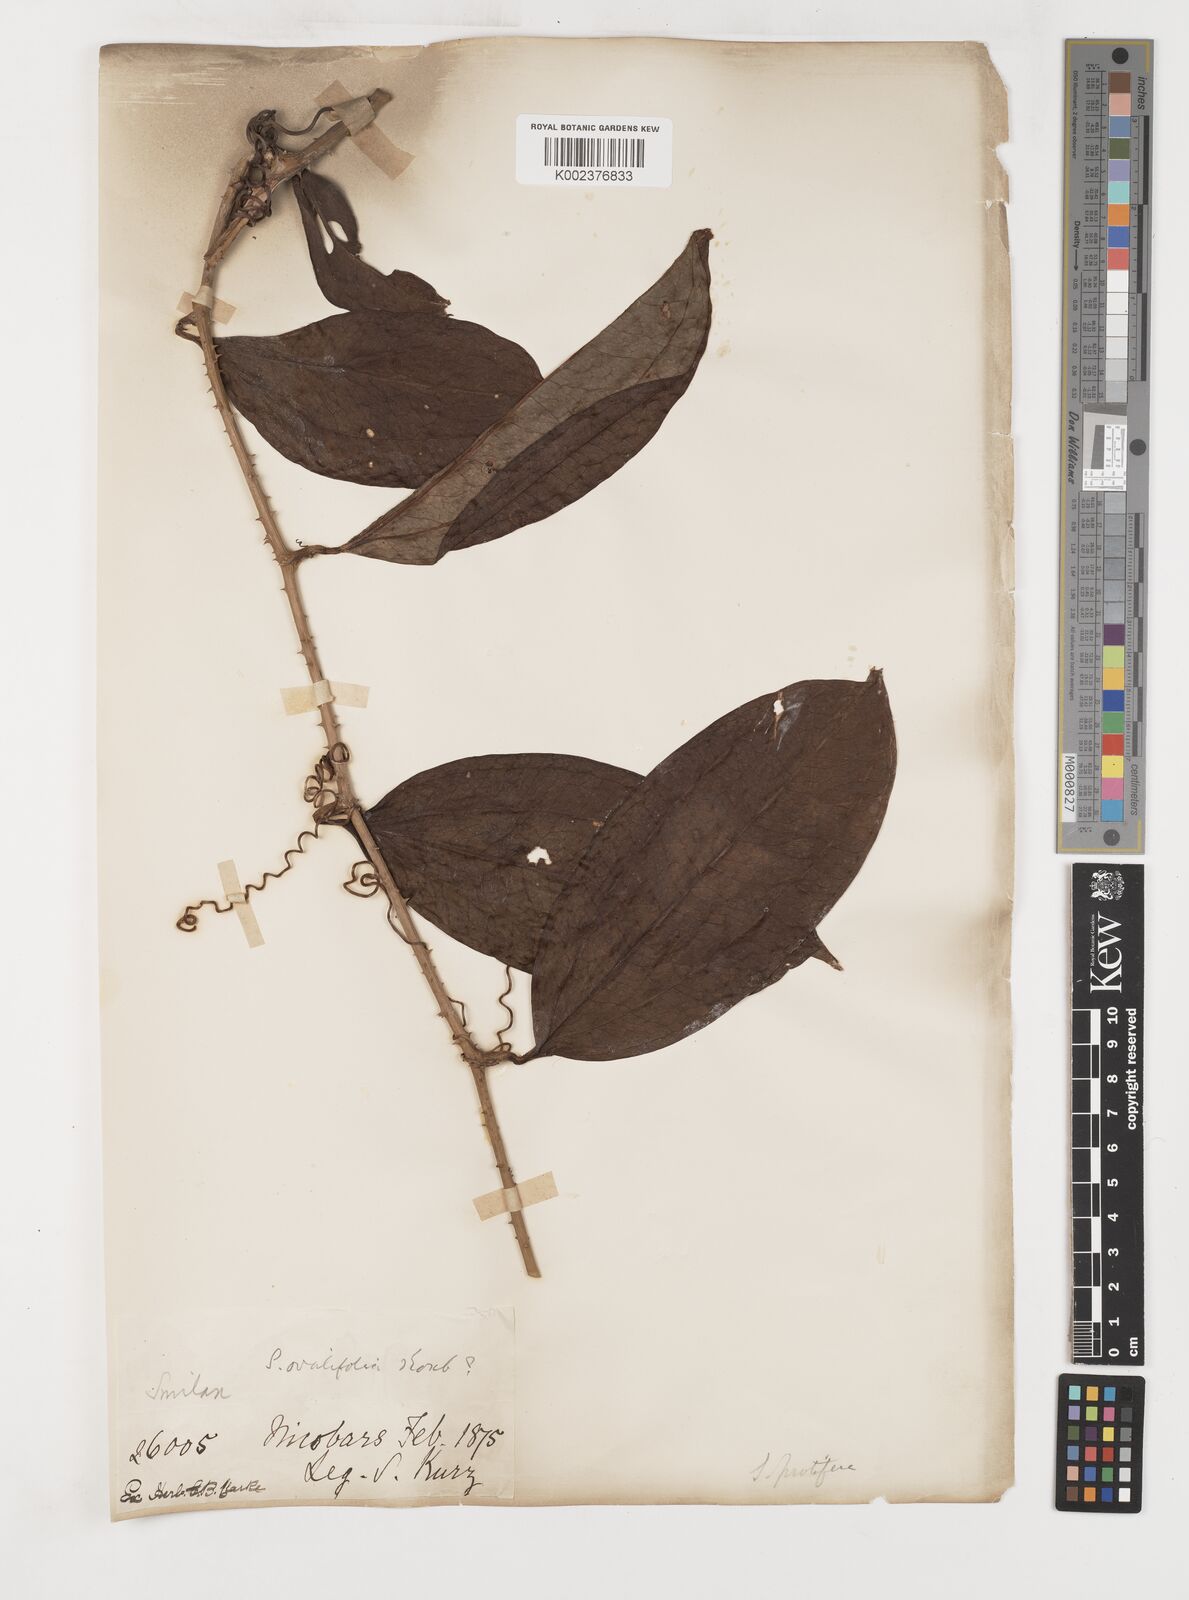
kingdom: Plantae
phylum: Tracheophyta
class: Liliopsida
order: Liliales
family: Smilacaceae
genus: Smilax
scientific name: Smilax prolifera
